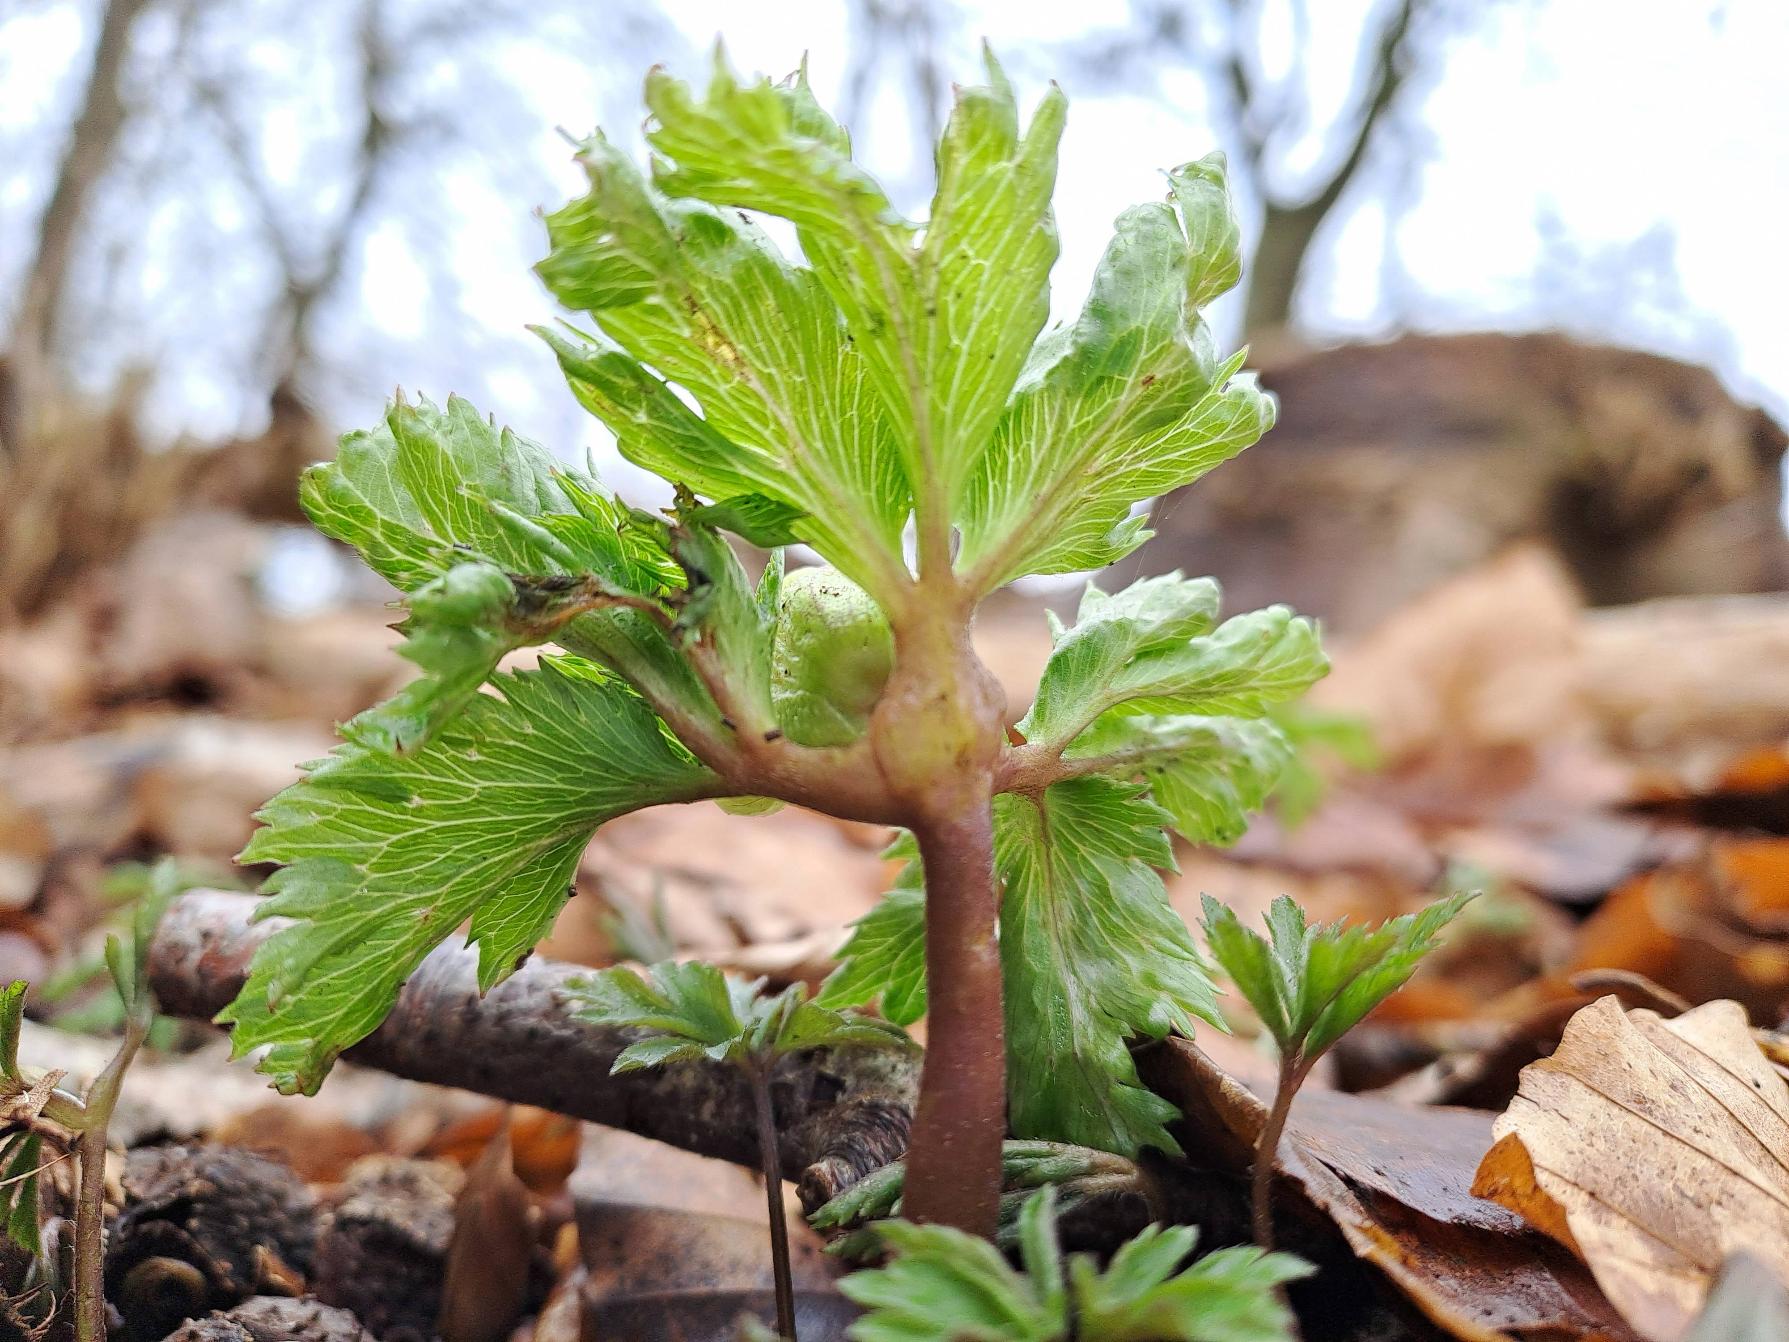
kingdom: Plantae
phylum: Tracheophyta
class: Magnoliopsida
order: Ranunculales
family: Ranunculaceae
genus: Anemone
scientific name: Anemone nemorosa
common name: Hvid anemone
